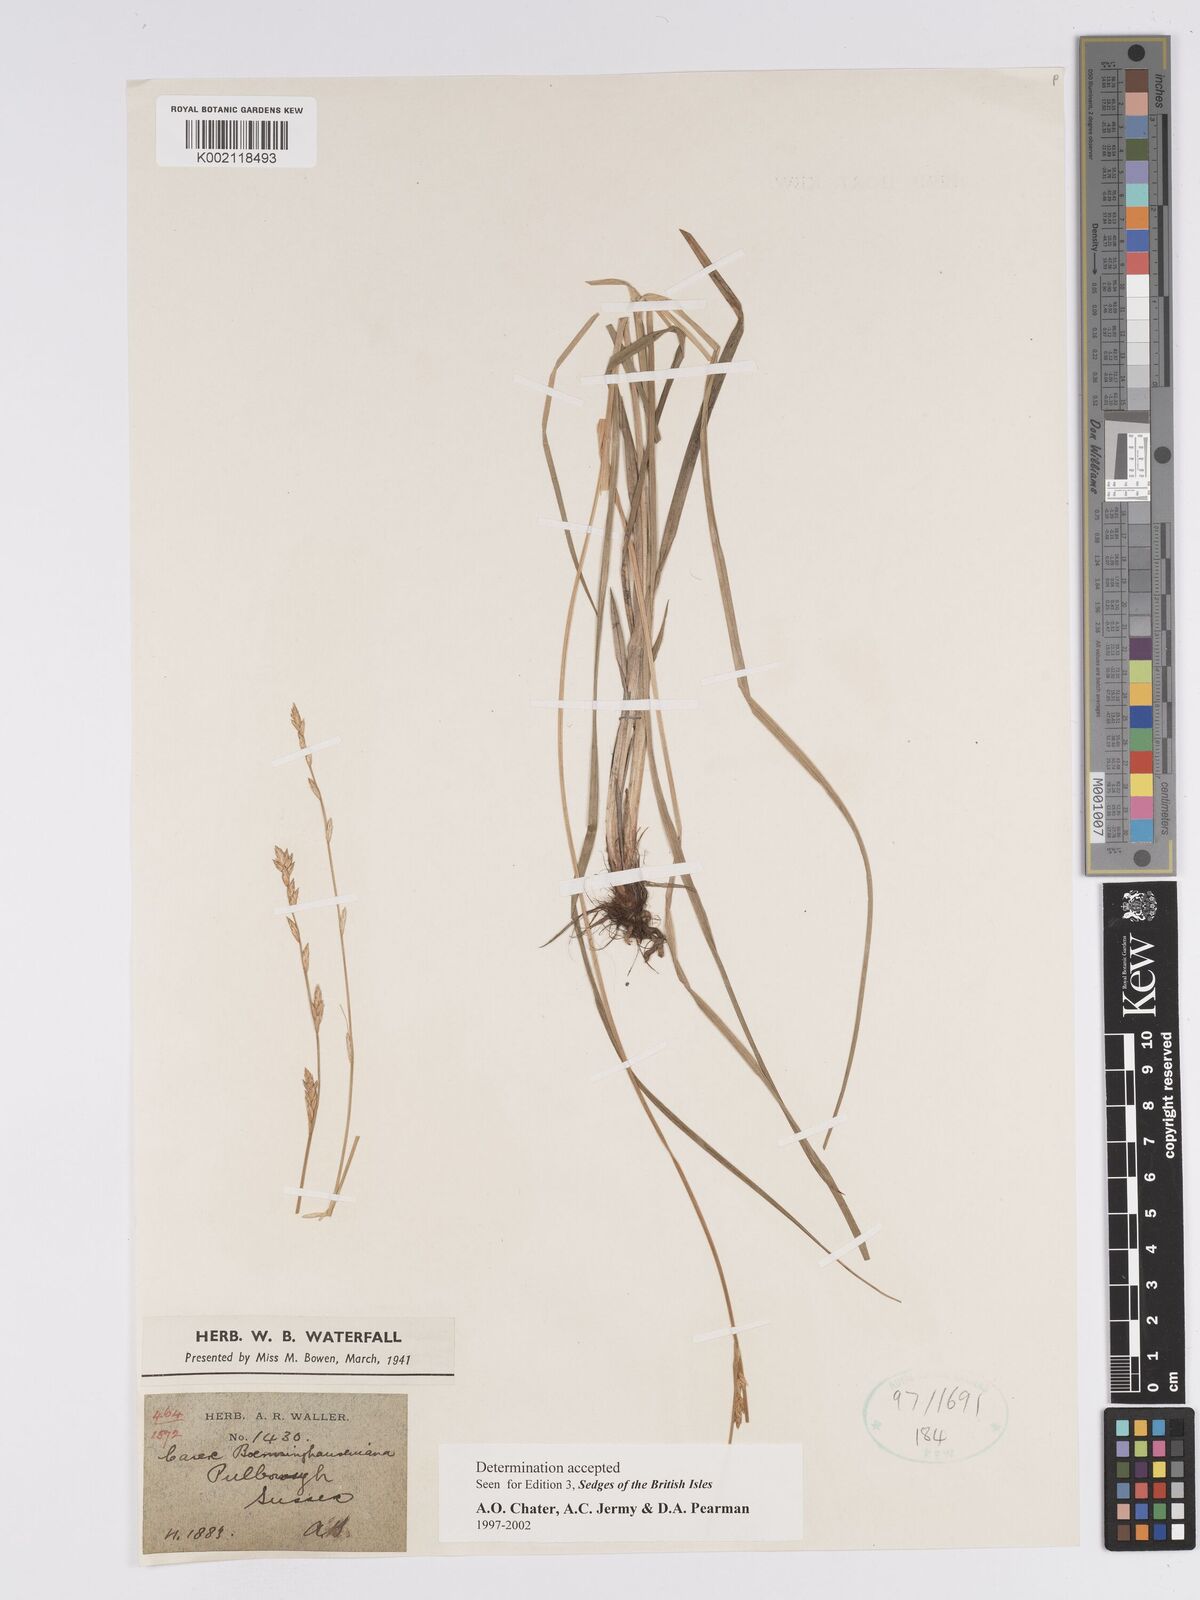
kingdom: Plantae
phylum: Tracheophyta
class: Liliopsida
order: Poales
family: Cyperaceae
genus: Carex
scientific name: Carex boenninghausiana
